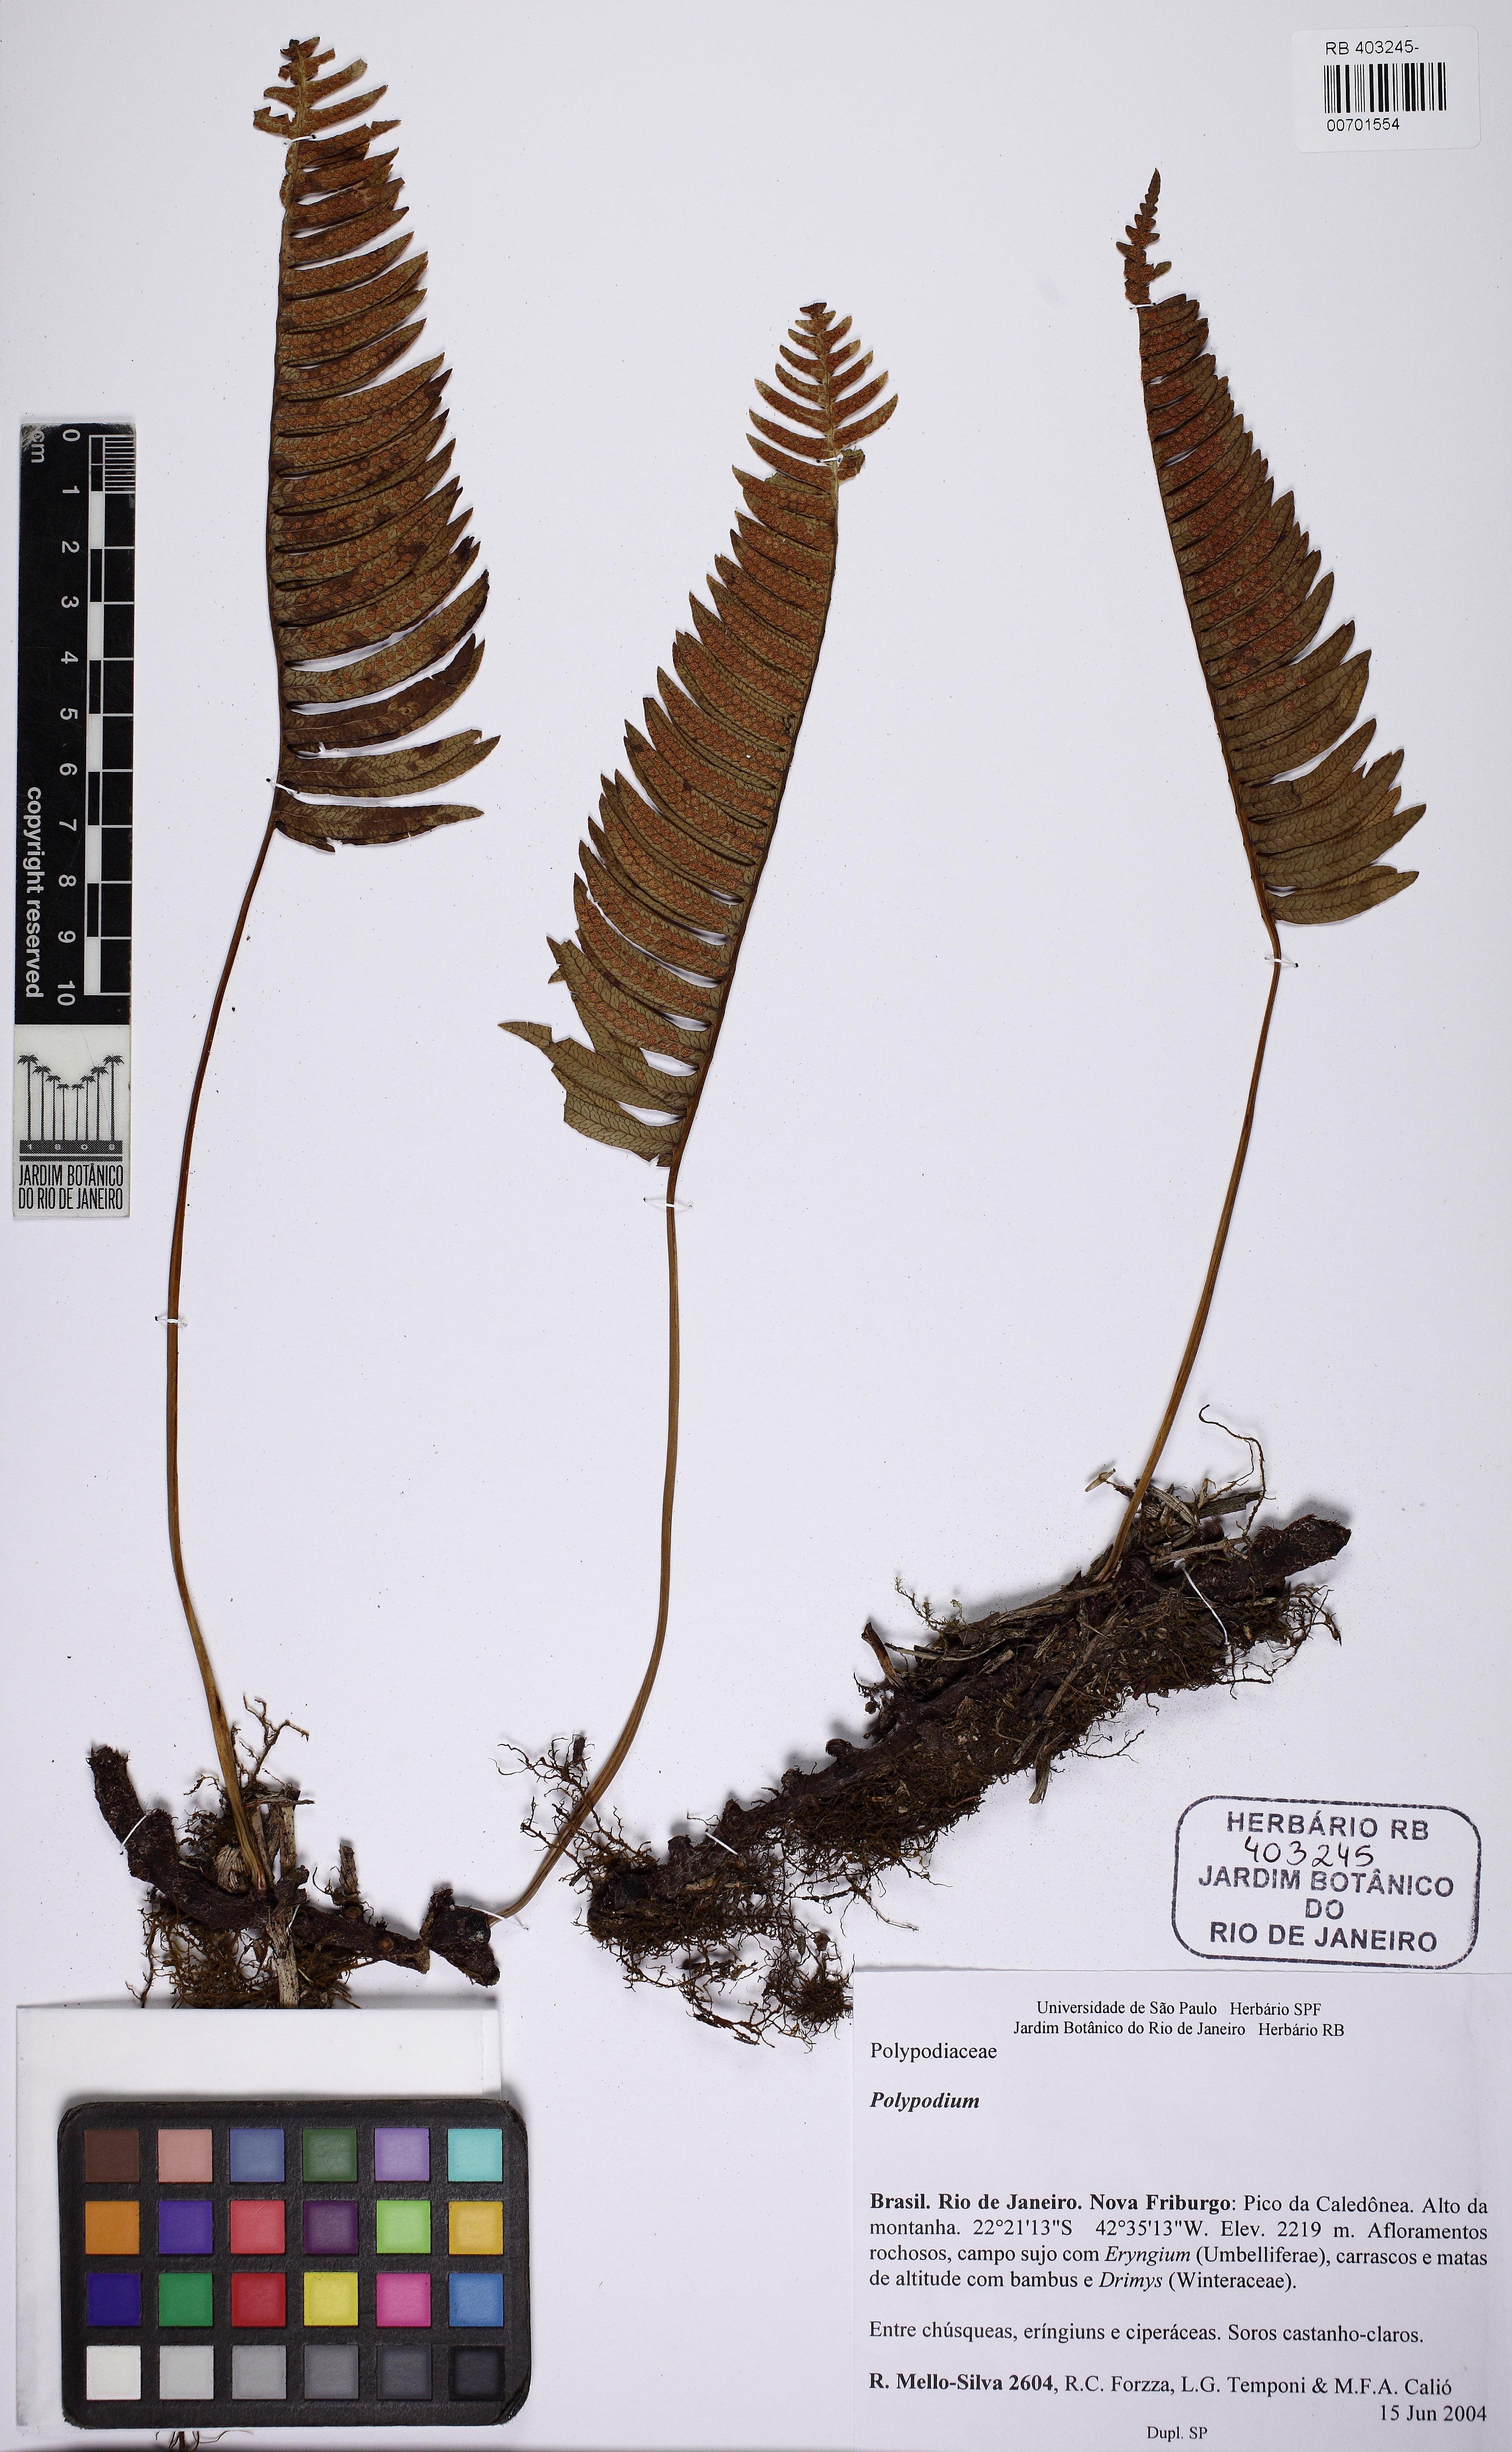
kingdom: Plantae
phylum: Tracheophyta
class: Polypodiopsida
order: Polypodiales
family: Polypodiaceae
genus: Serpocaulon
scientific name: Serpocaulon catharinae
